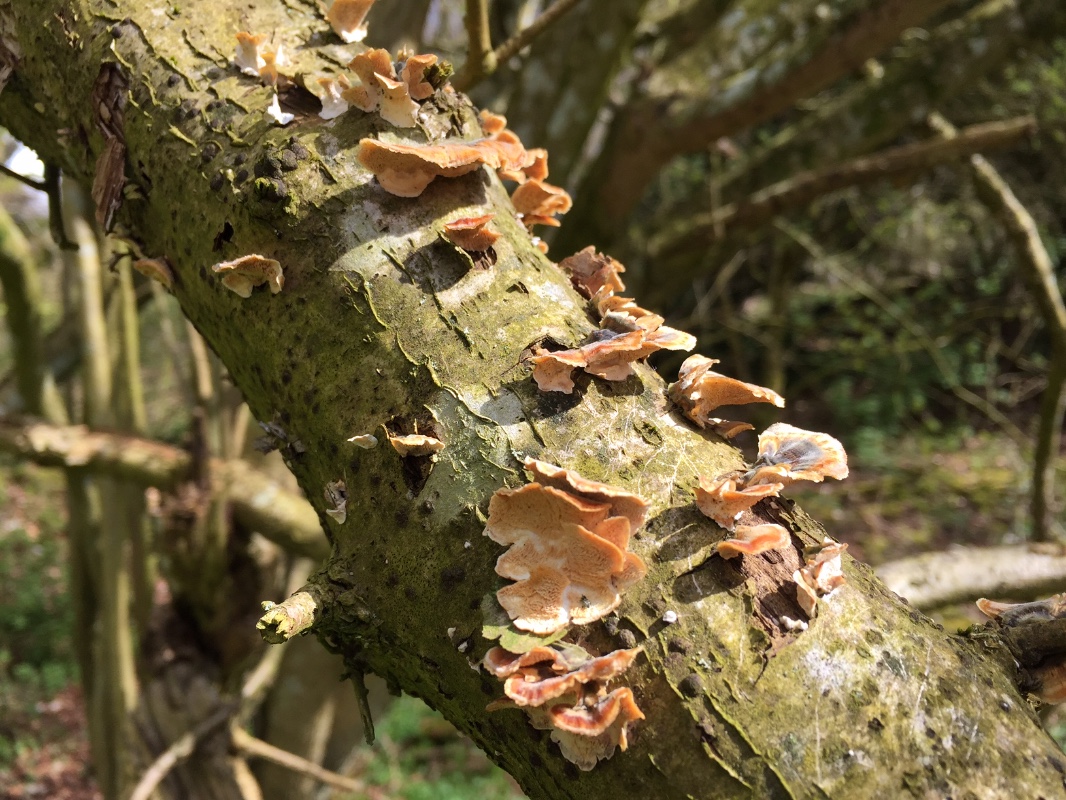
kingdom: Fungi
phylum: Basidiomycota
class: Agaricomycetes
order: Polyporales
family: Polyporaceae
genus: Trametes
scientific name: Trametes versicolor
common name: broget læderporesvamp
